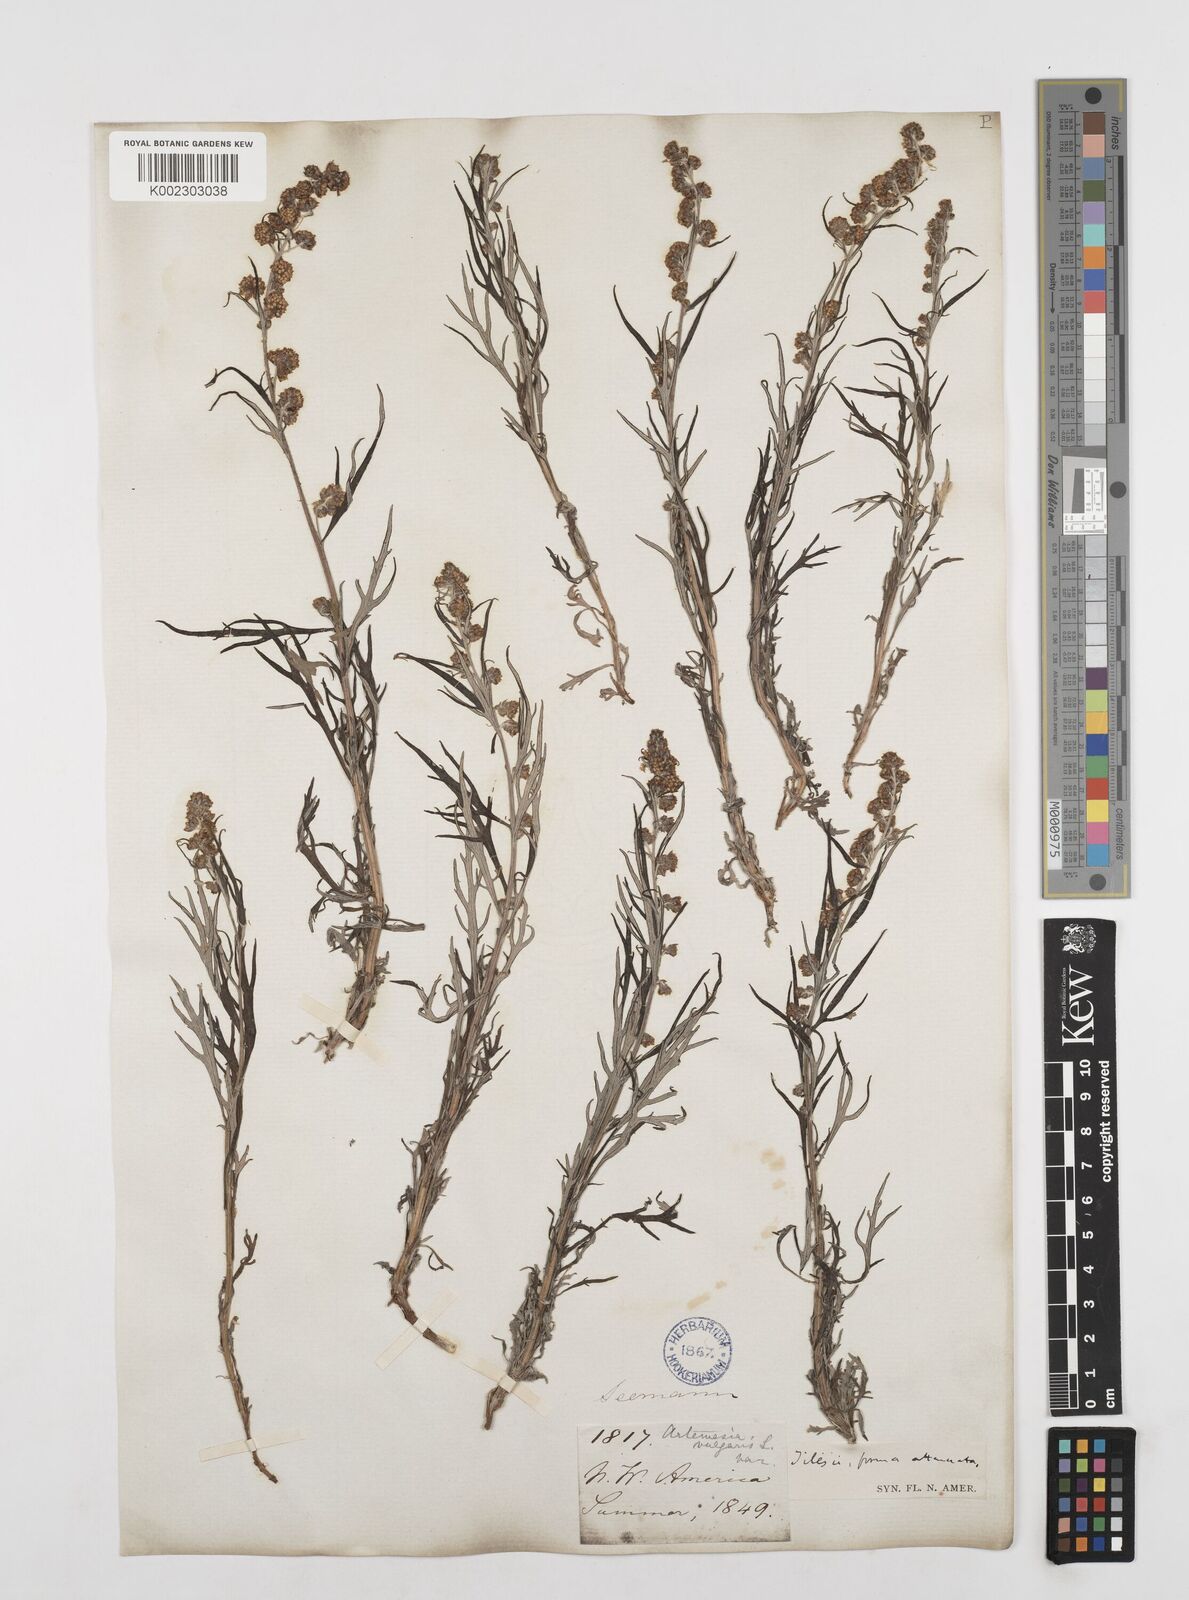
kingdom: Plantae
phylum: Tracheophyta
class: Magnoliopsida
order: Asterales
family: Asteraceae
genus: Artemisia
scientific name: Artemisia tilesii
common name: Aleutian mugwort
